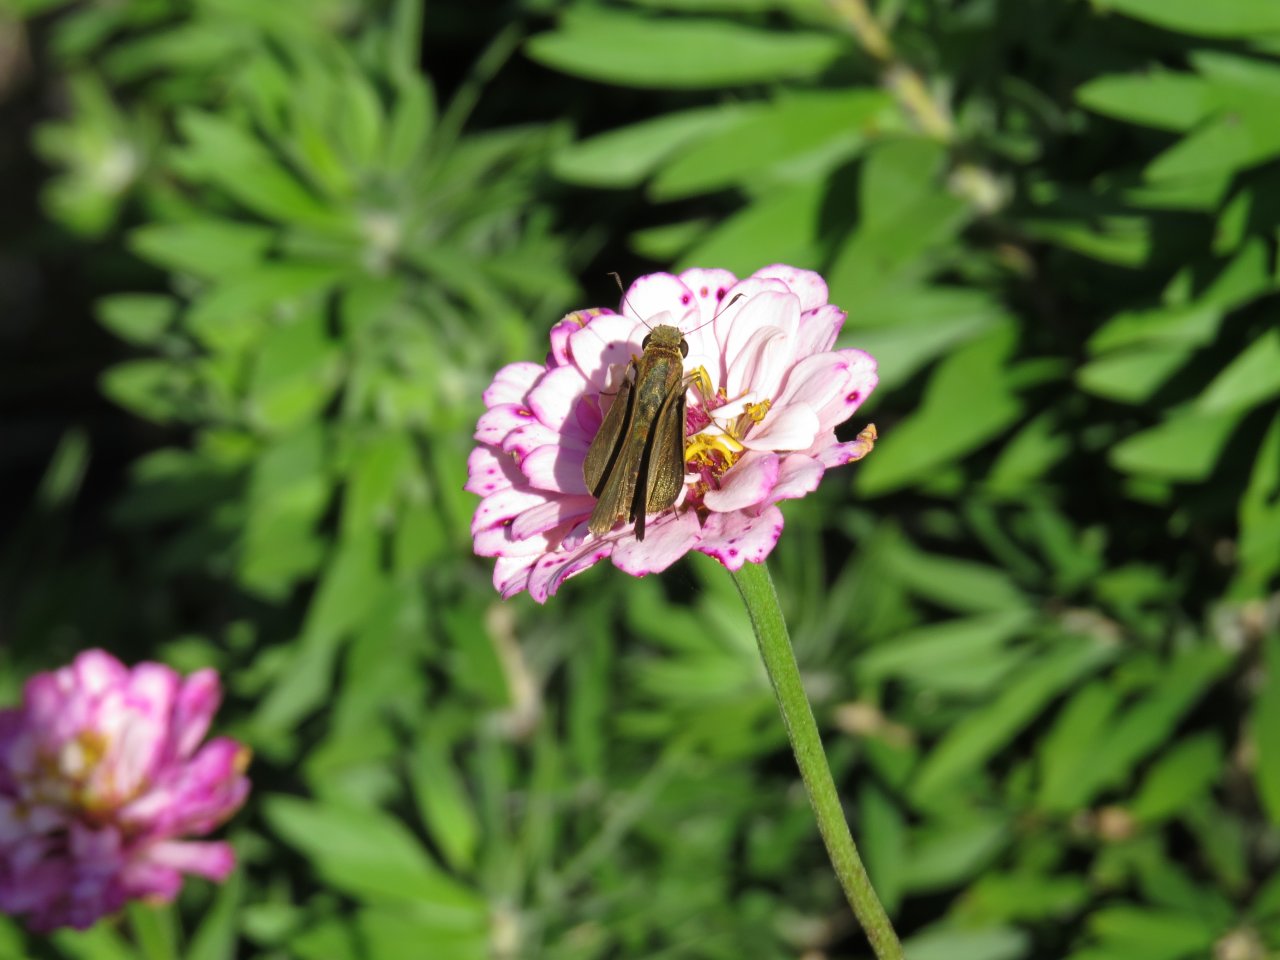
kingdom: Animalia
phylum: Arthropoda
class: Insecta
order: Lepidoptera
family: Hesperiidae
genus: Panoquina
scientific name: Panoquina ocola
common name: Ocola Skipper
